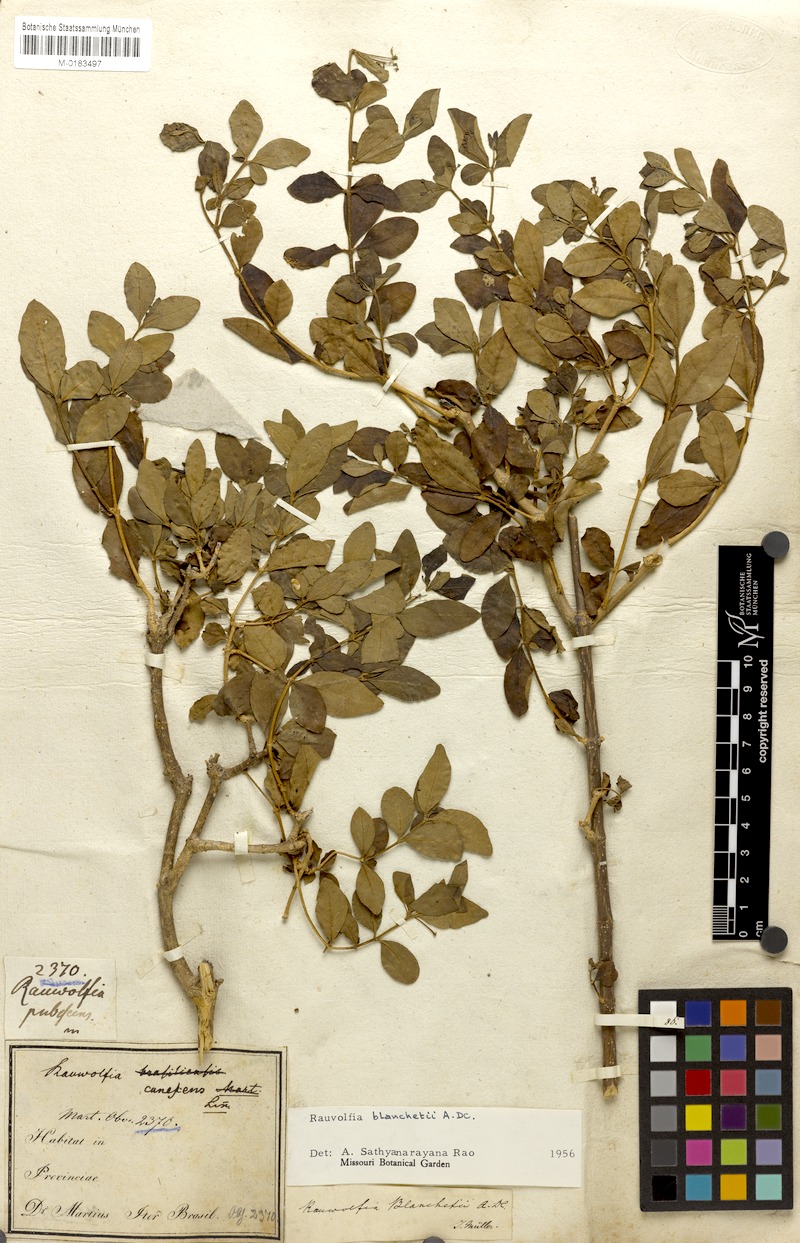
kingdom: Plantae
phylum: Tracheophyta
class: Magnoliopsida
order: Gentianales
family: Apocynaceae
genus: Rauvolfia
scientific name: Rauvolfia ligustrina
